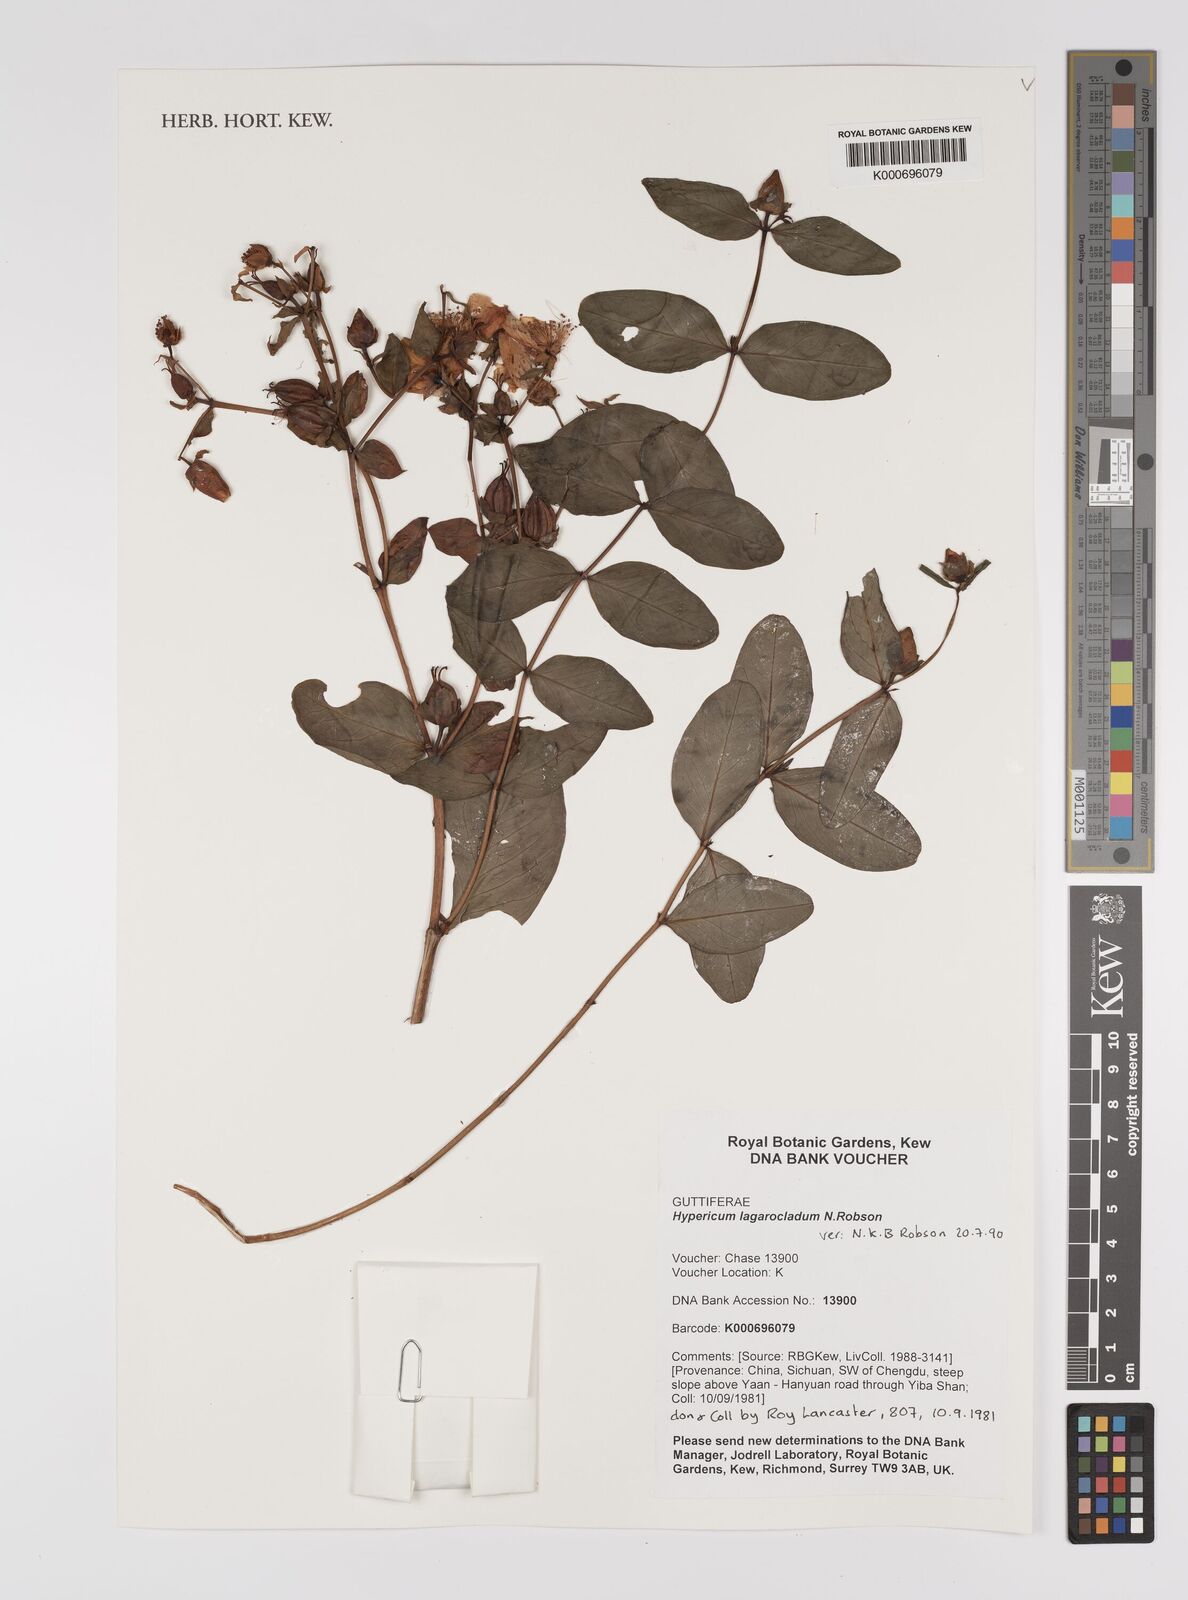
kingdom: Plantae
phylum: Tracheophyta
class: Magnoliopsida
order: Malpighiales
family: Hypericaceae
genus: Hypericum
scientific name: Hypericum beanii
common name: St. johnswort
